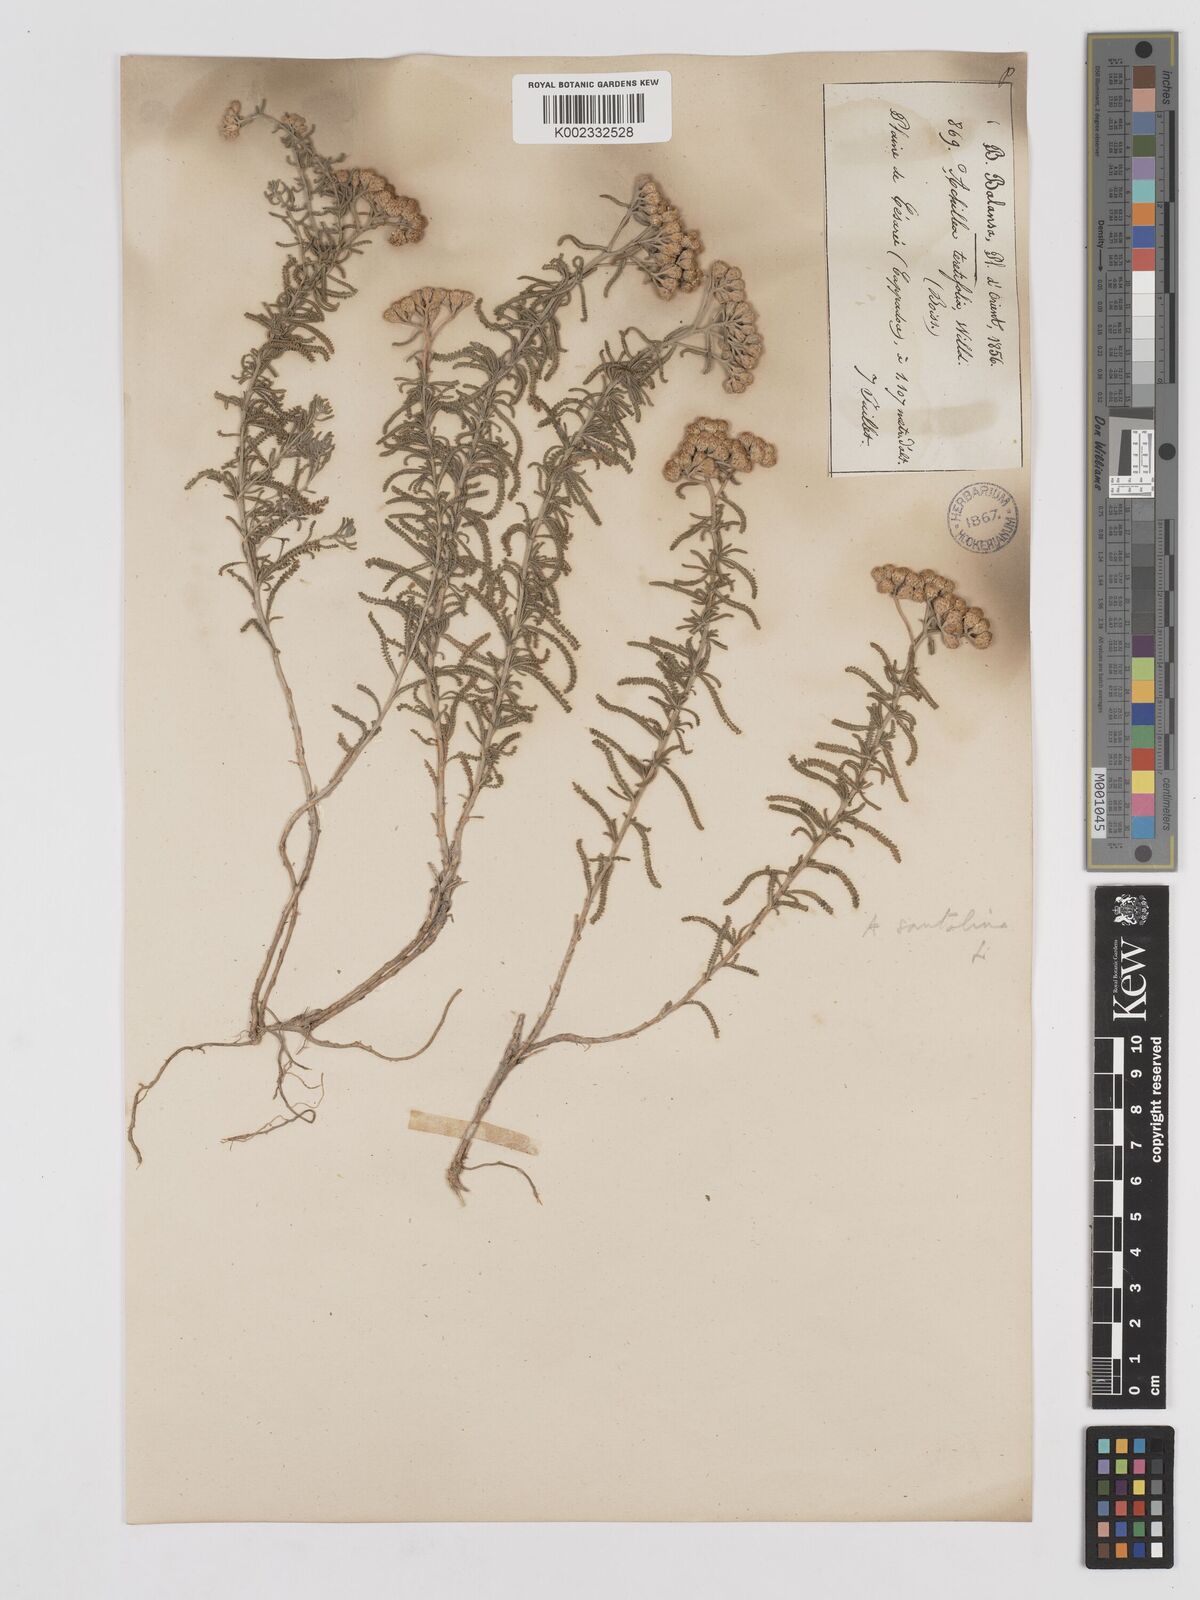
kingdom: Plantae
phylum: Tracheophyta
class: Magnoliopsida
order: Asterales
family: Asteraceae
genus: Achillea
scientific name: Achillea tenuifolia
